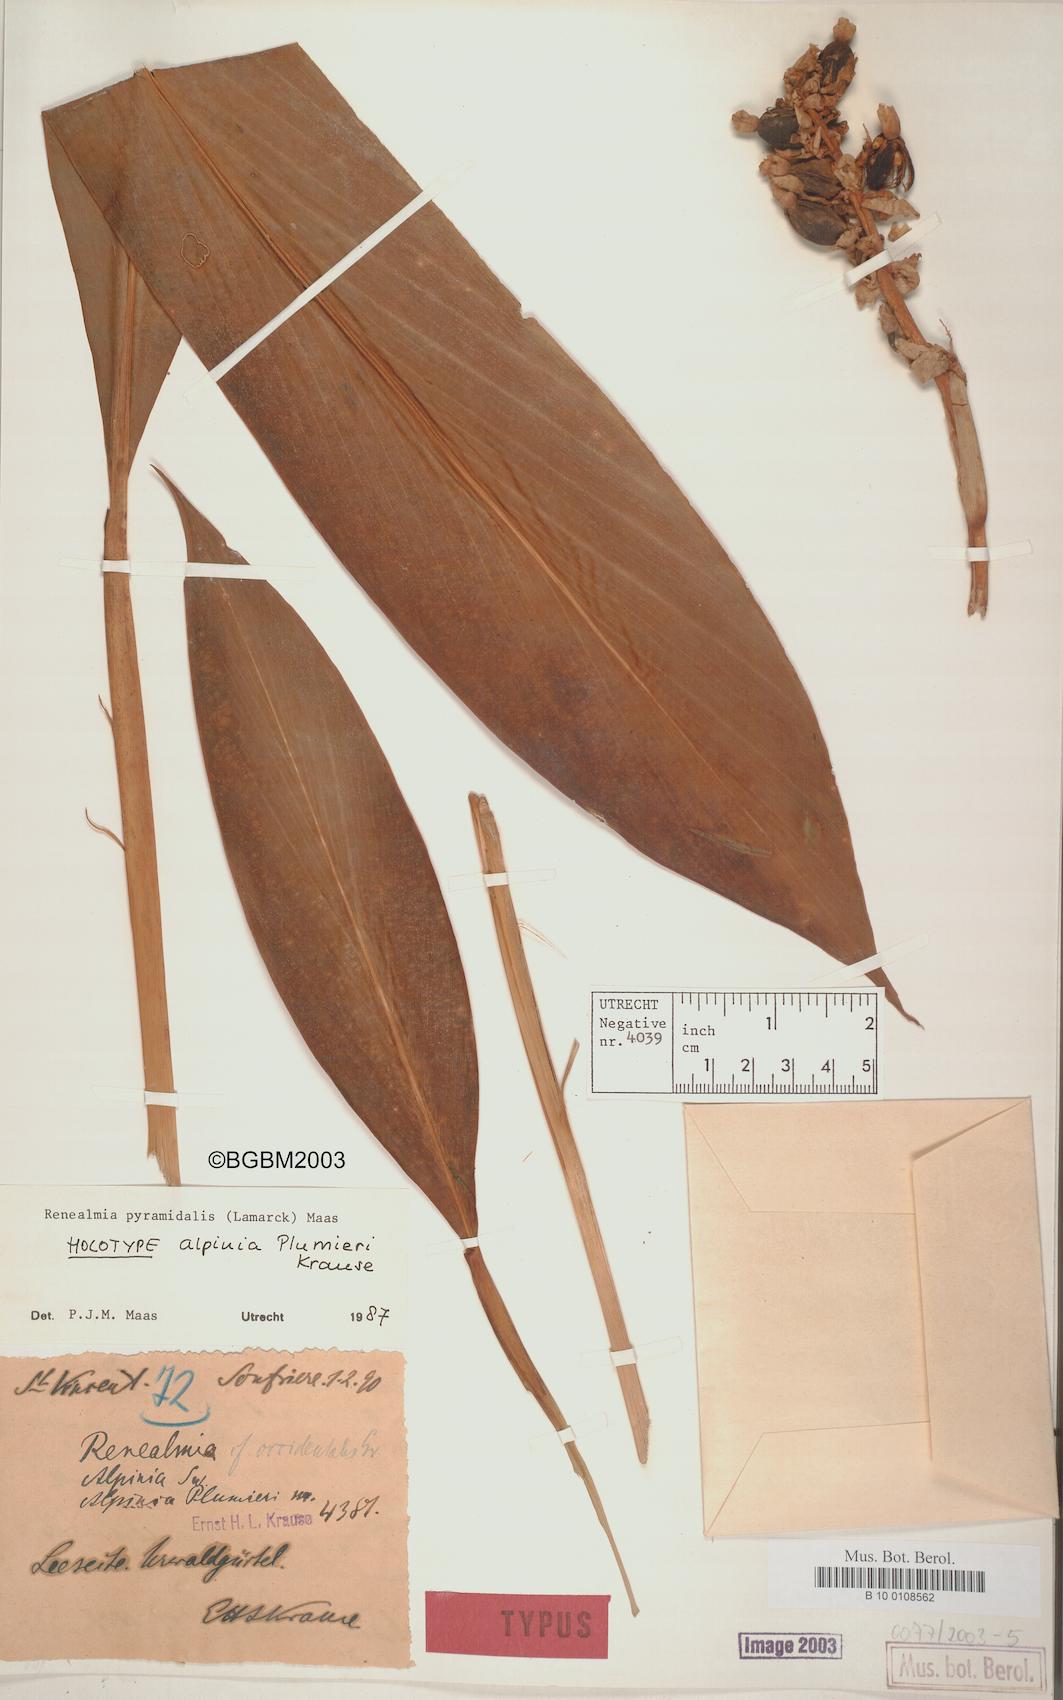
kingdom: Plantae
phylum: Tracheophyta
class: Liliopsida
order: Zingiberales
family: Zingiberaceae
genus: Renealmia
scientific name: Renealmia pyramidalis
